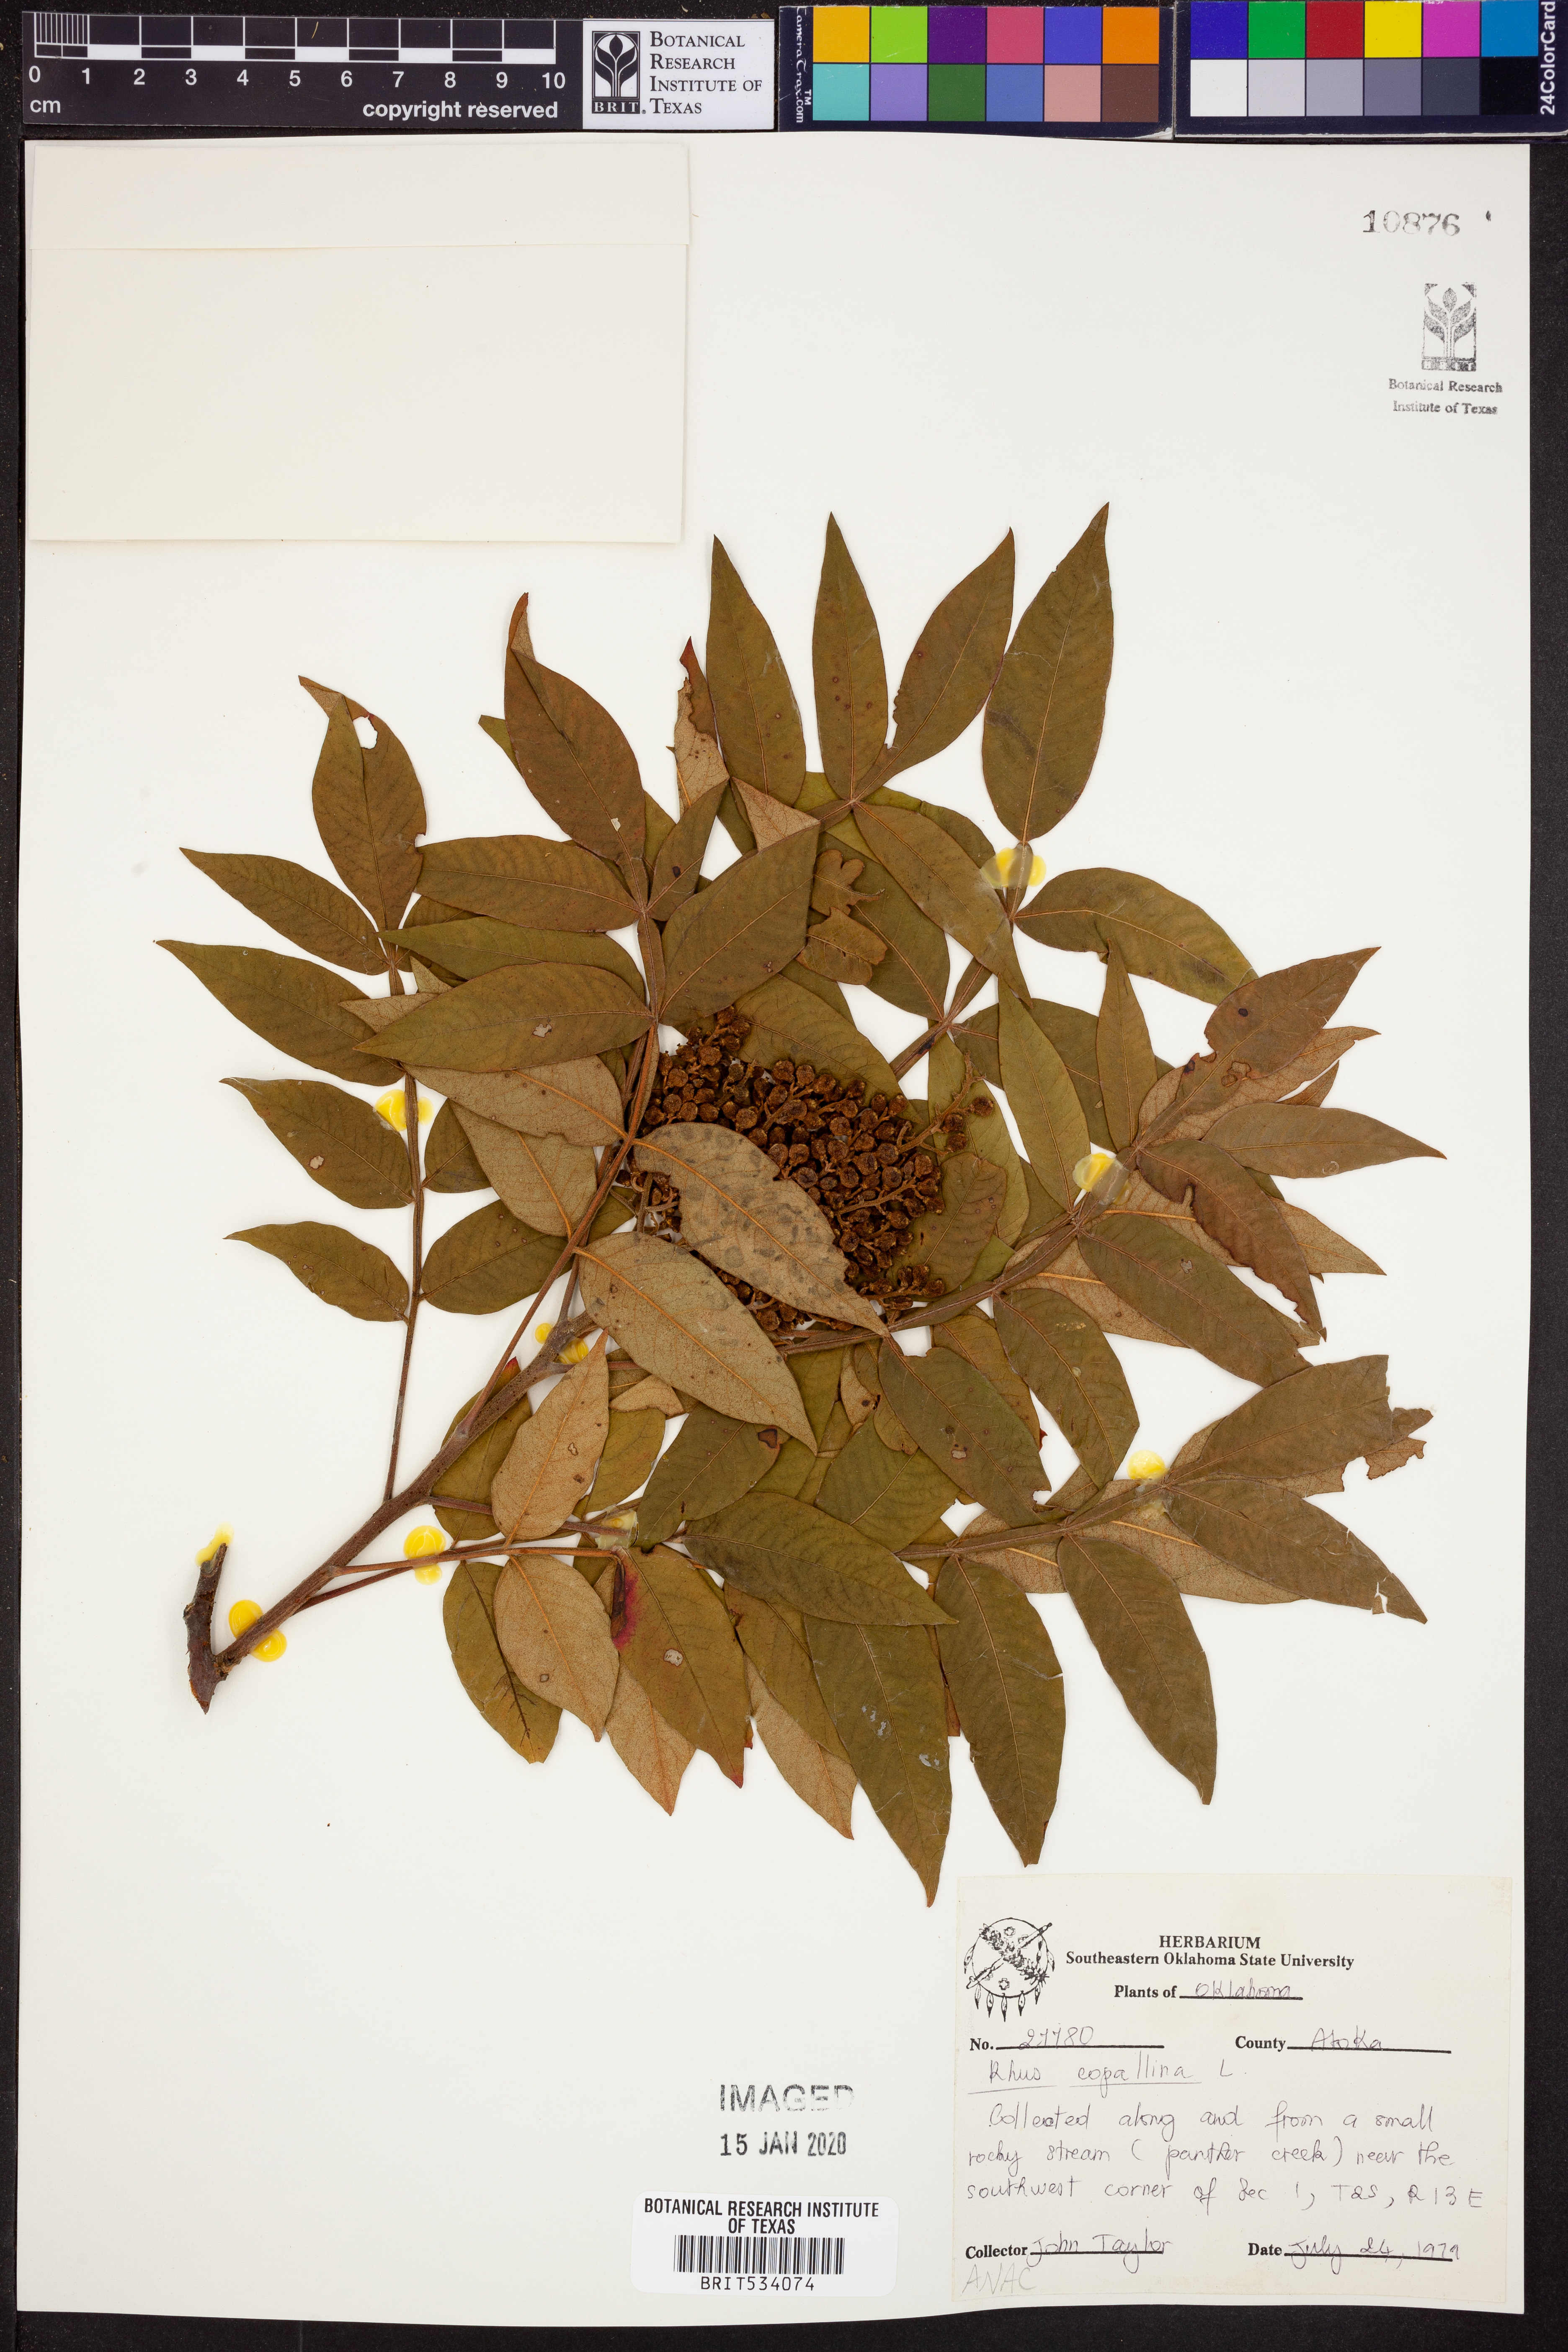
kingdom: Plantae
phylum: Tracheophyta
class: Magnoliopsida
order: Sapindales
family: Anacardiaceae
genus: Rhus
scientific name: Rhus copallina
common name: Shining sumac
